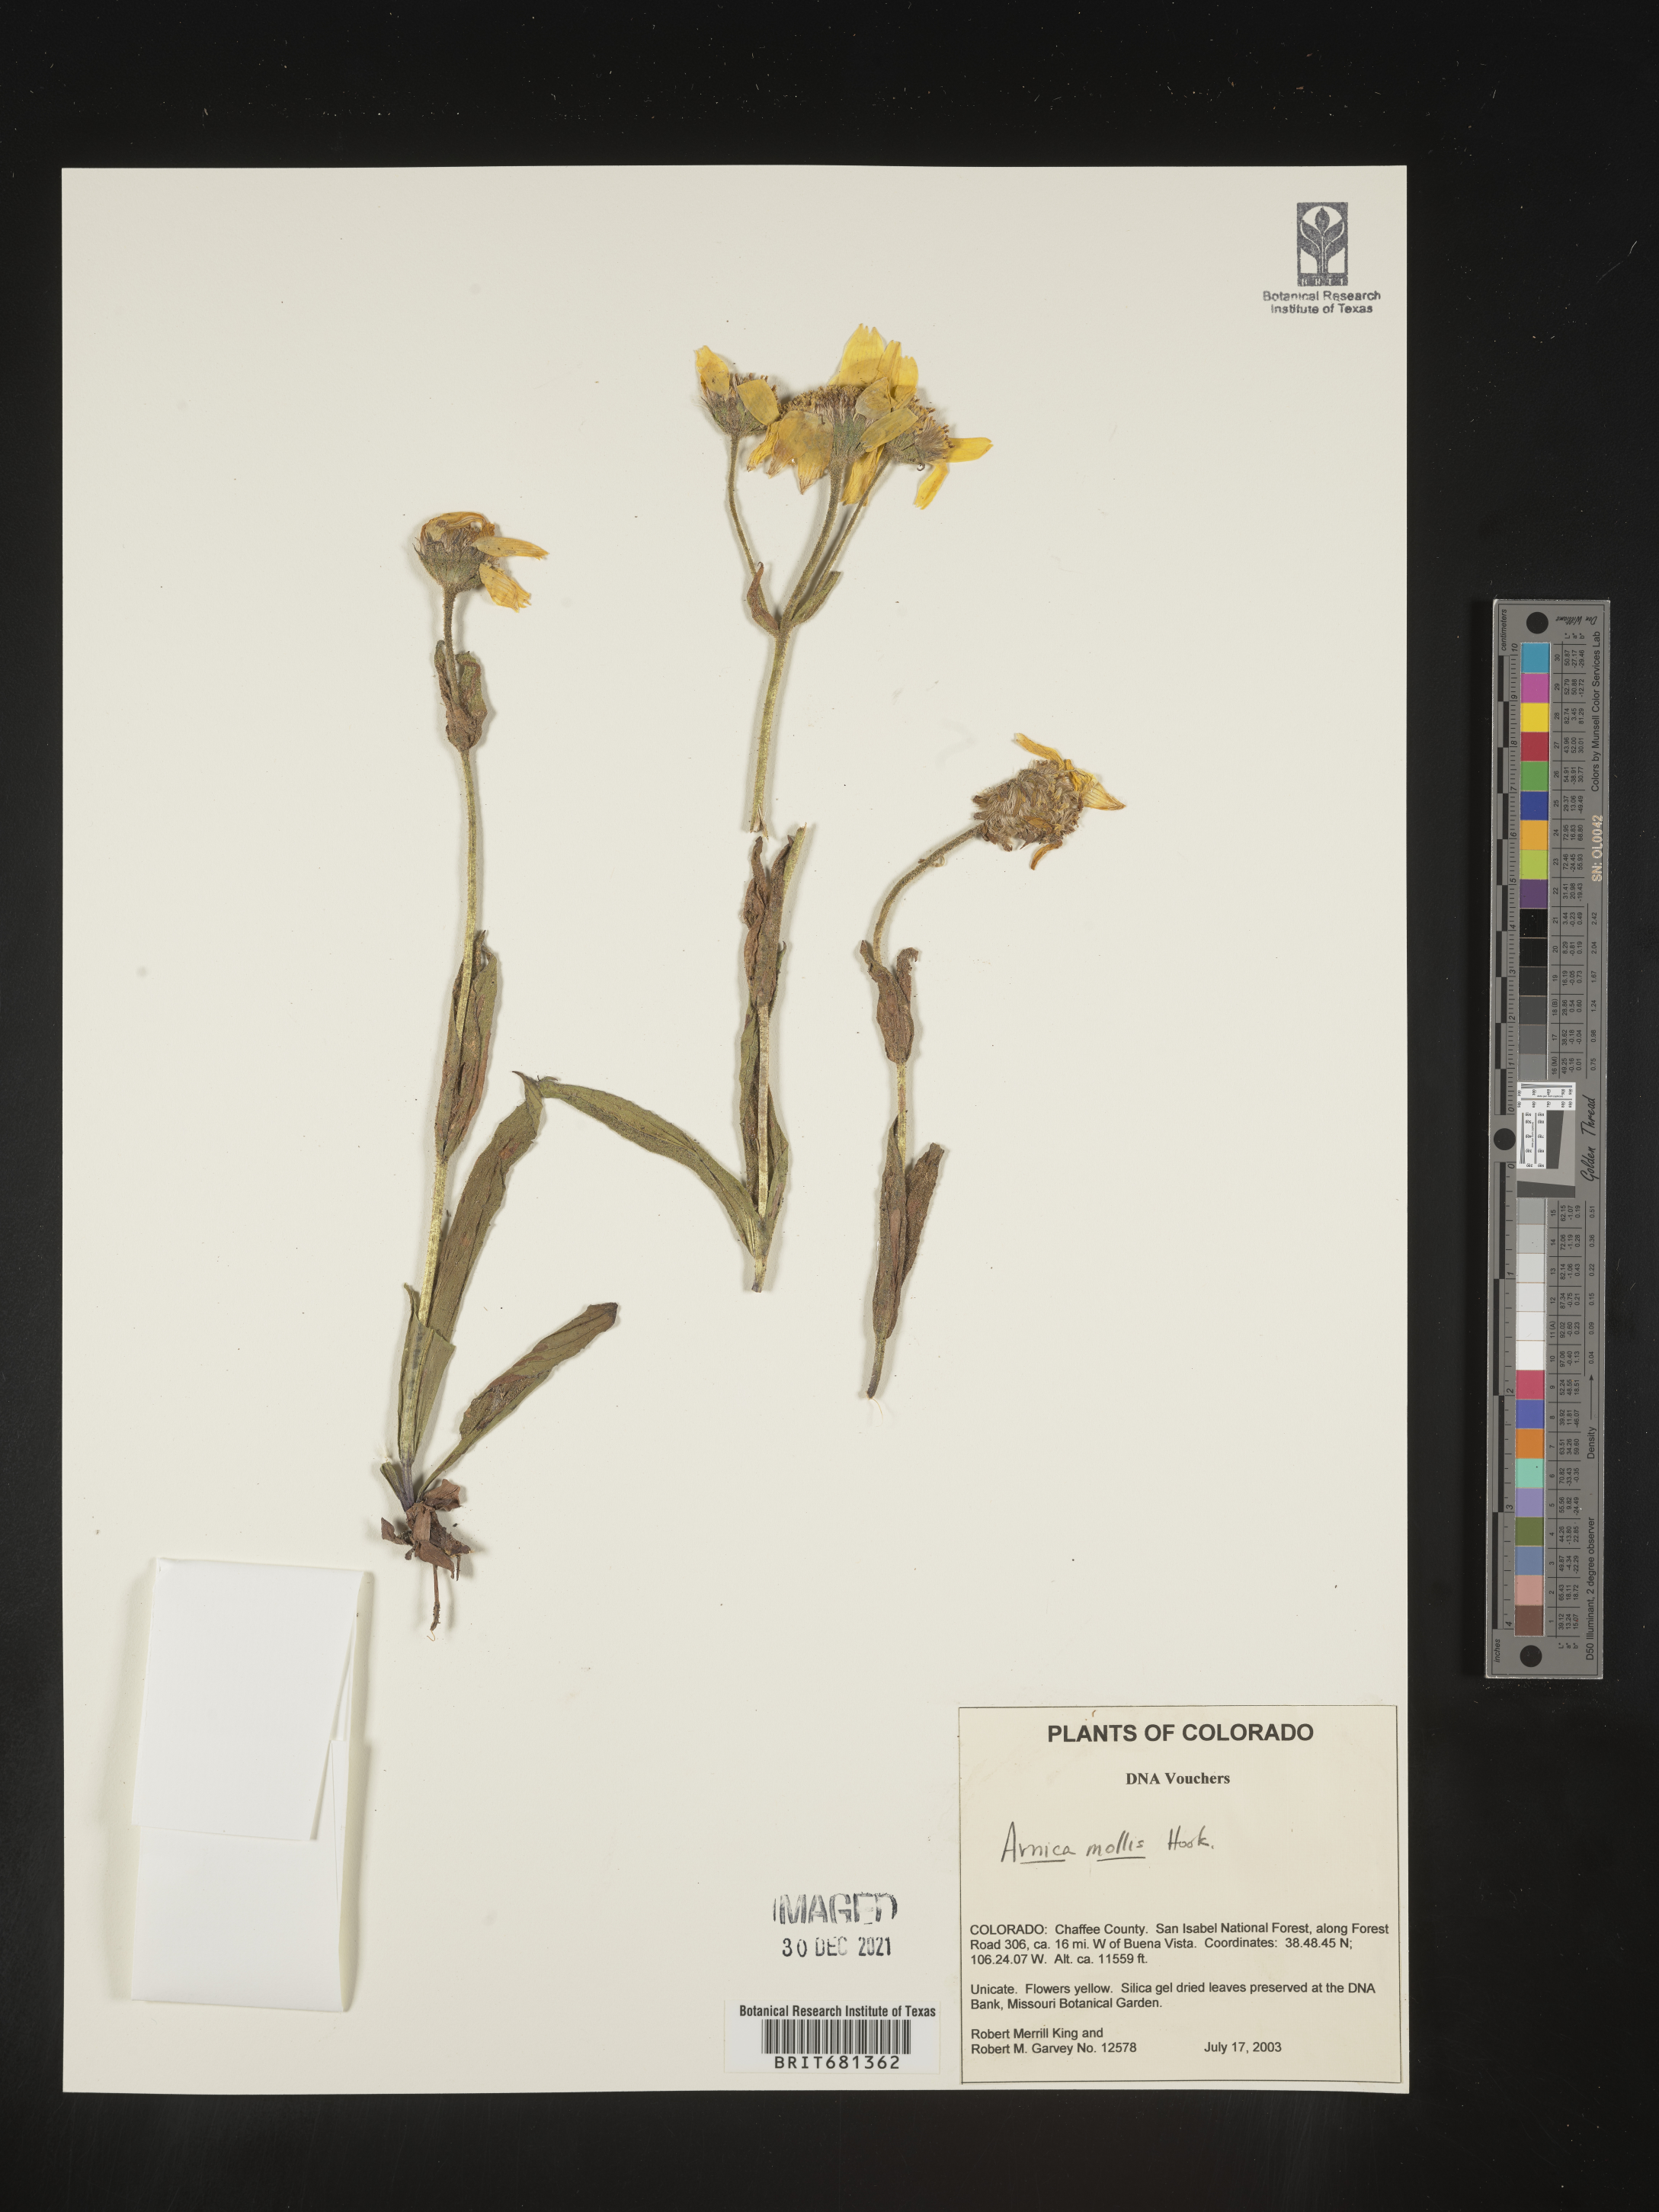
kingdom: Plantae
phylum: Tracheophyta
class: Magnoliopsida
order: Asterales
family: Asteraceae
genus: Arnica
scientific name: Arnica mollis
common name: Hairy arnica
